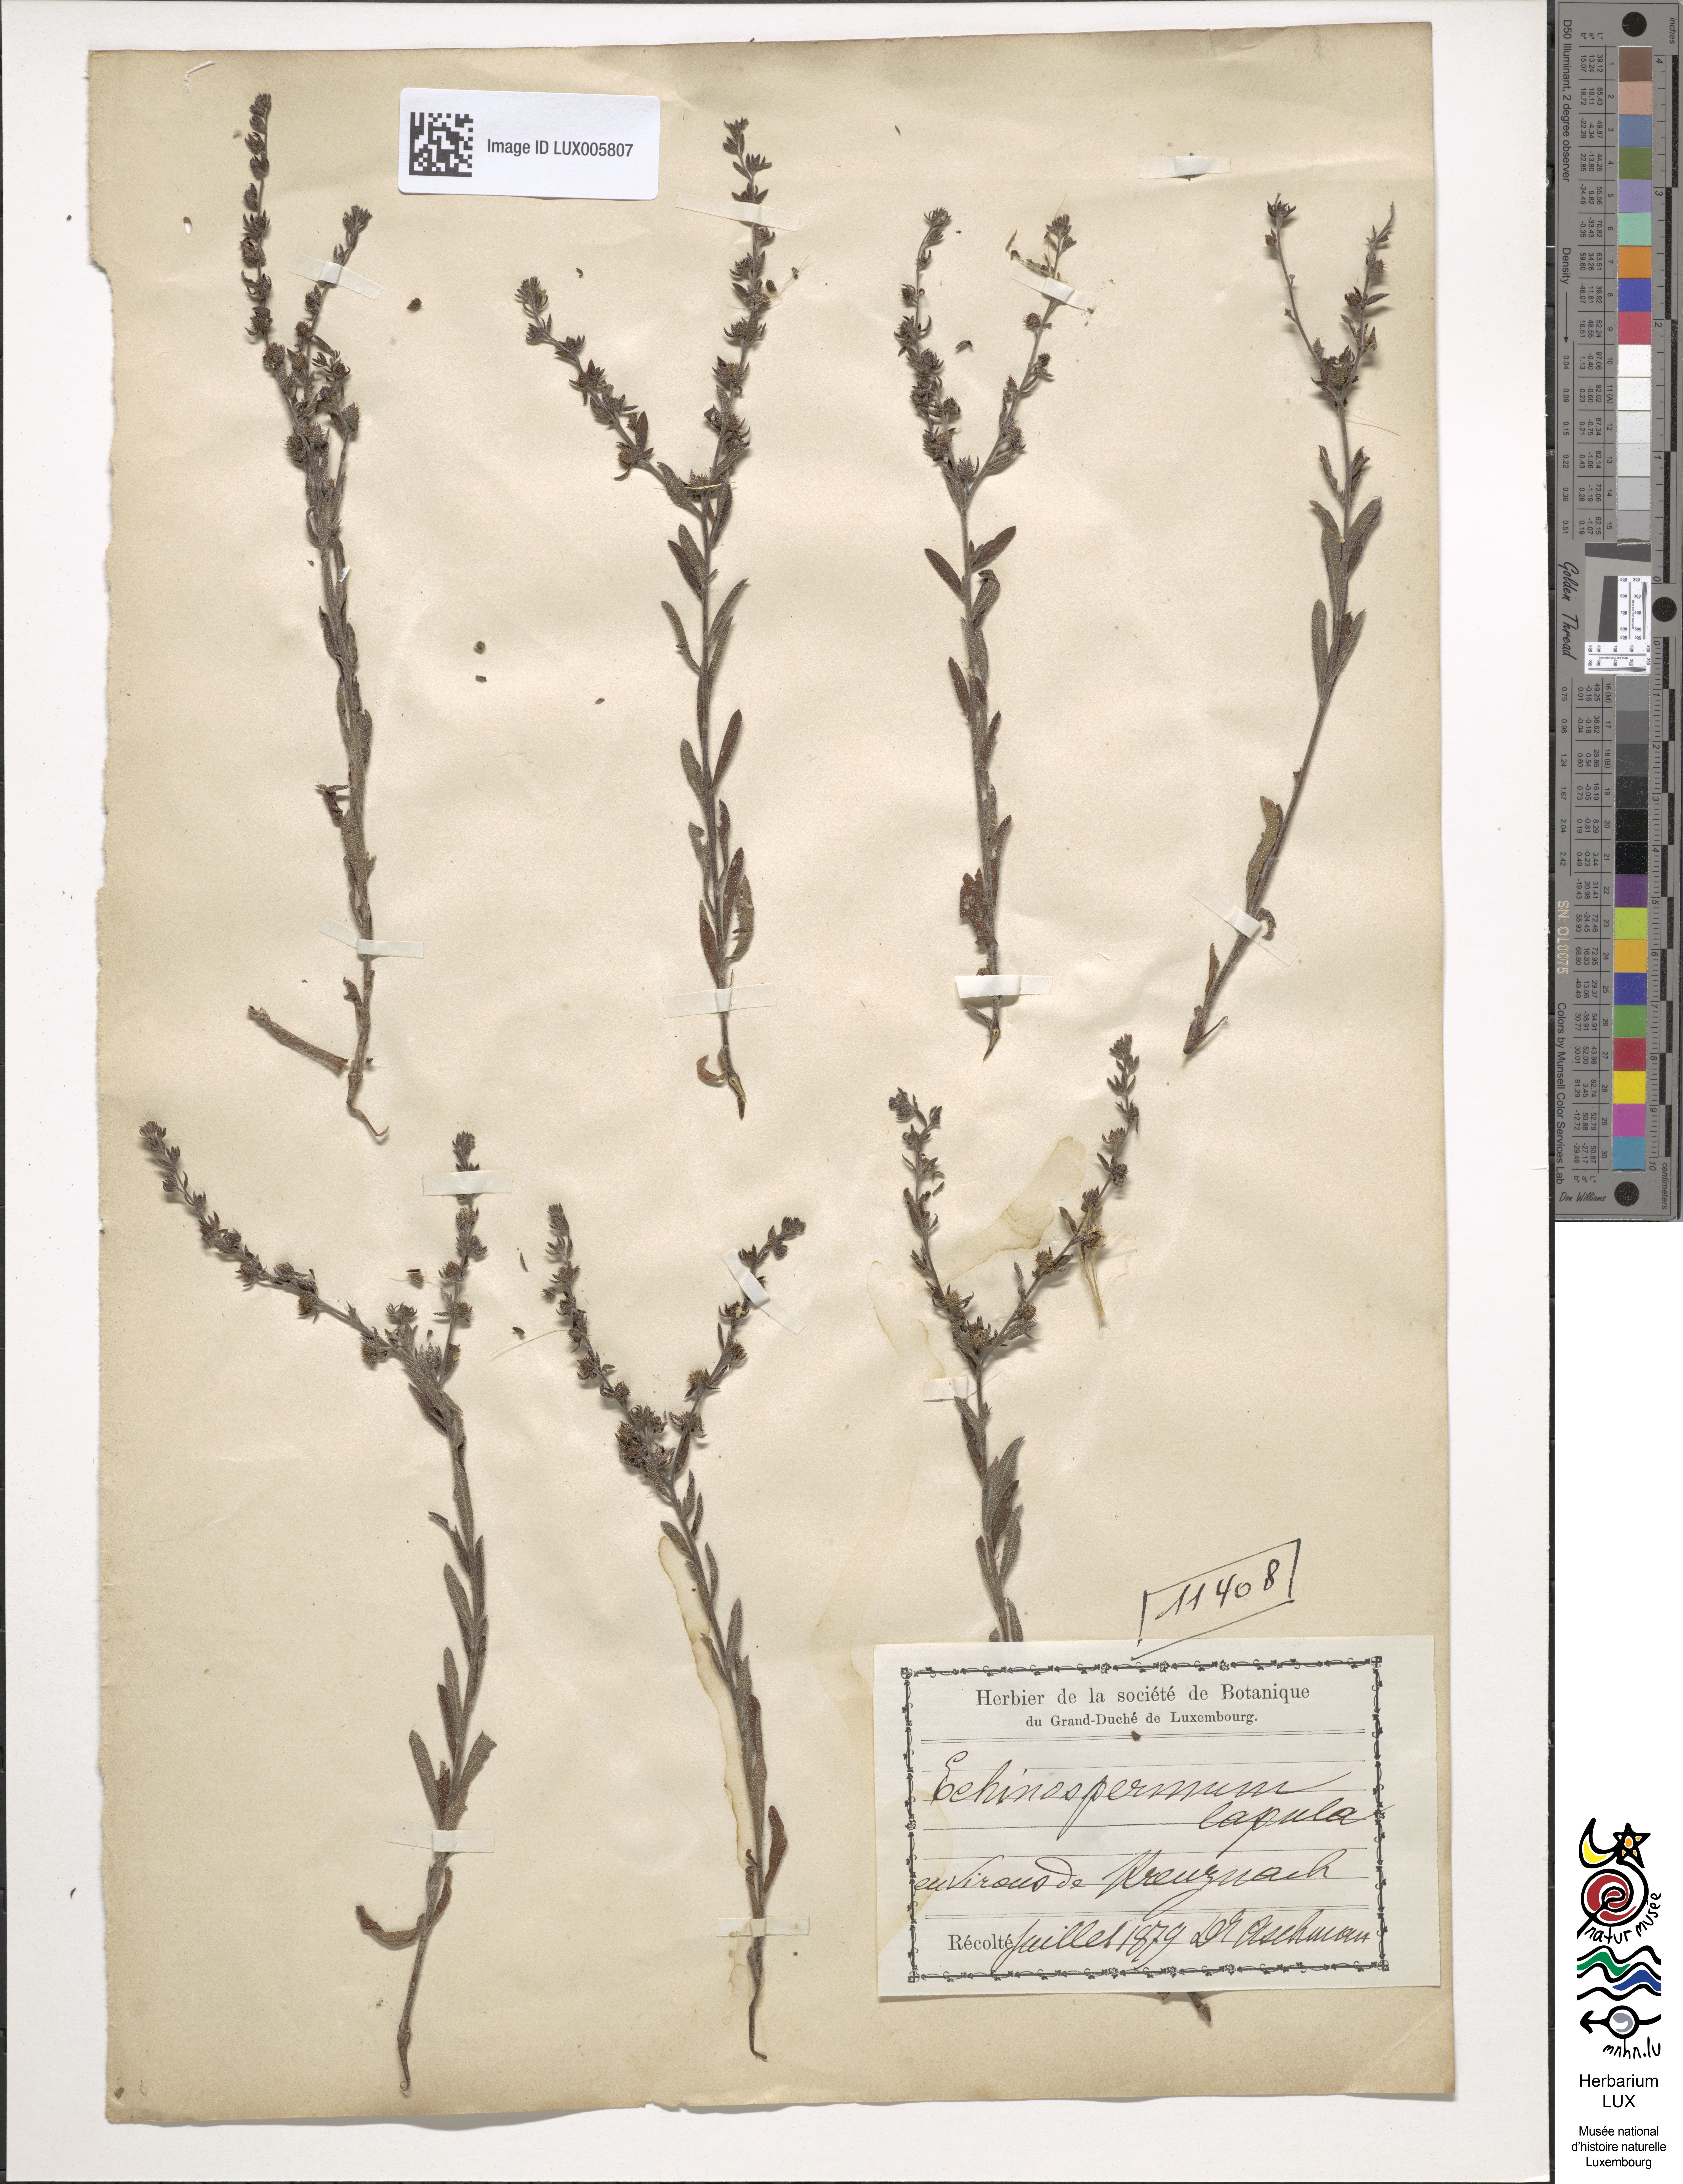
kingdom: Plantae
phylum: Tracheophyta
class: Magnoliopsida
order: Boraginales
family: Boraginaceae
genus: Lappula
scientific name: Lappula squarrosa
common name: European stickseed
